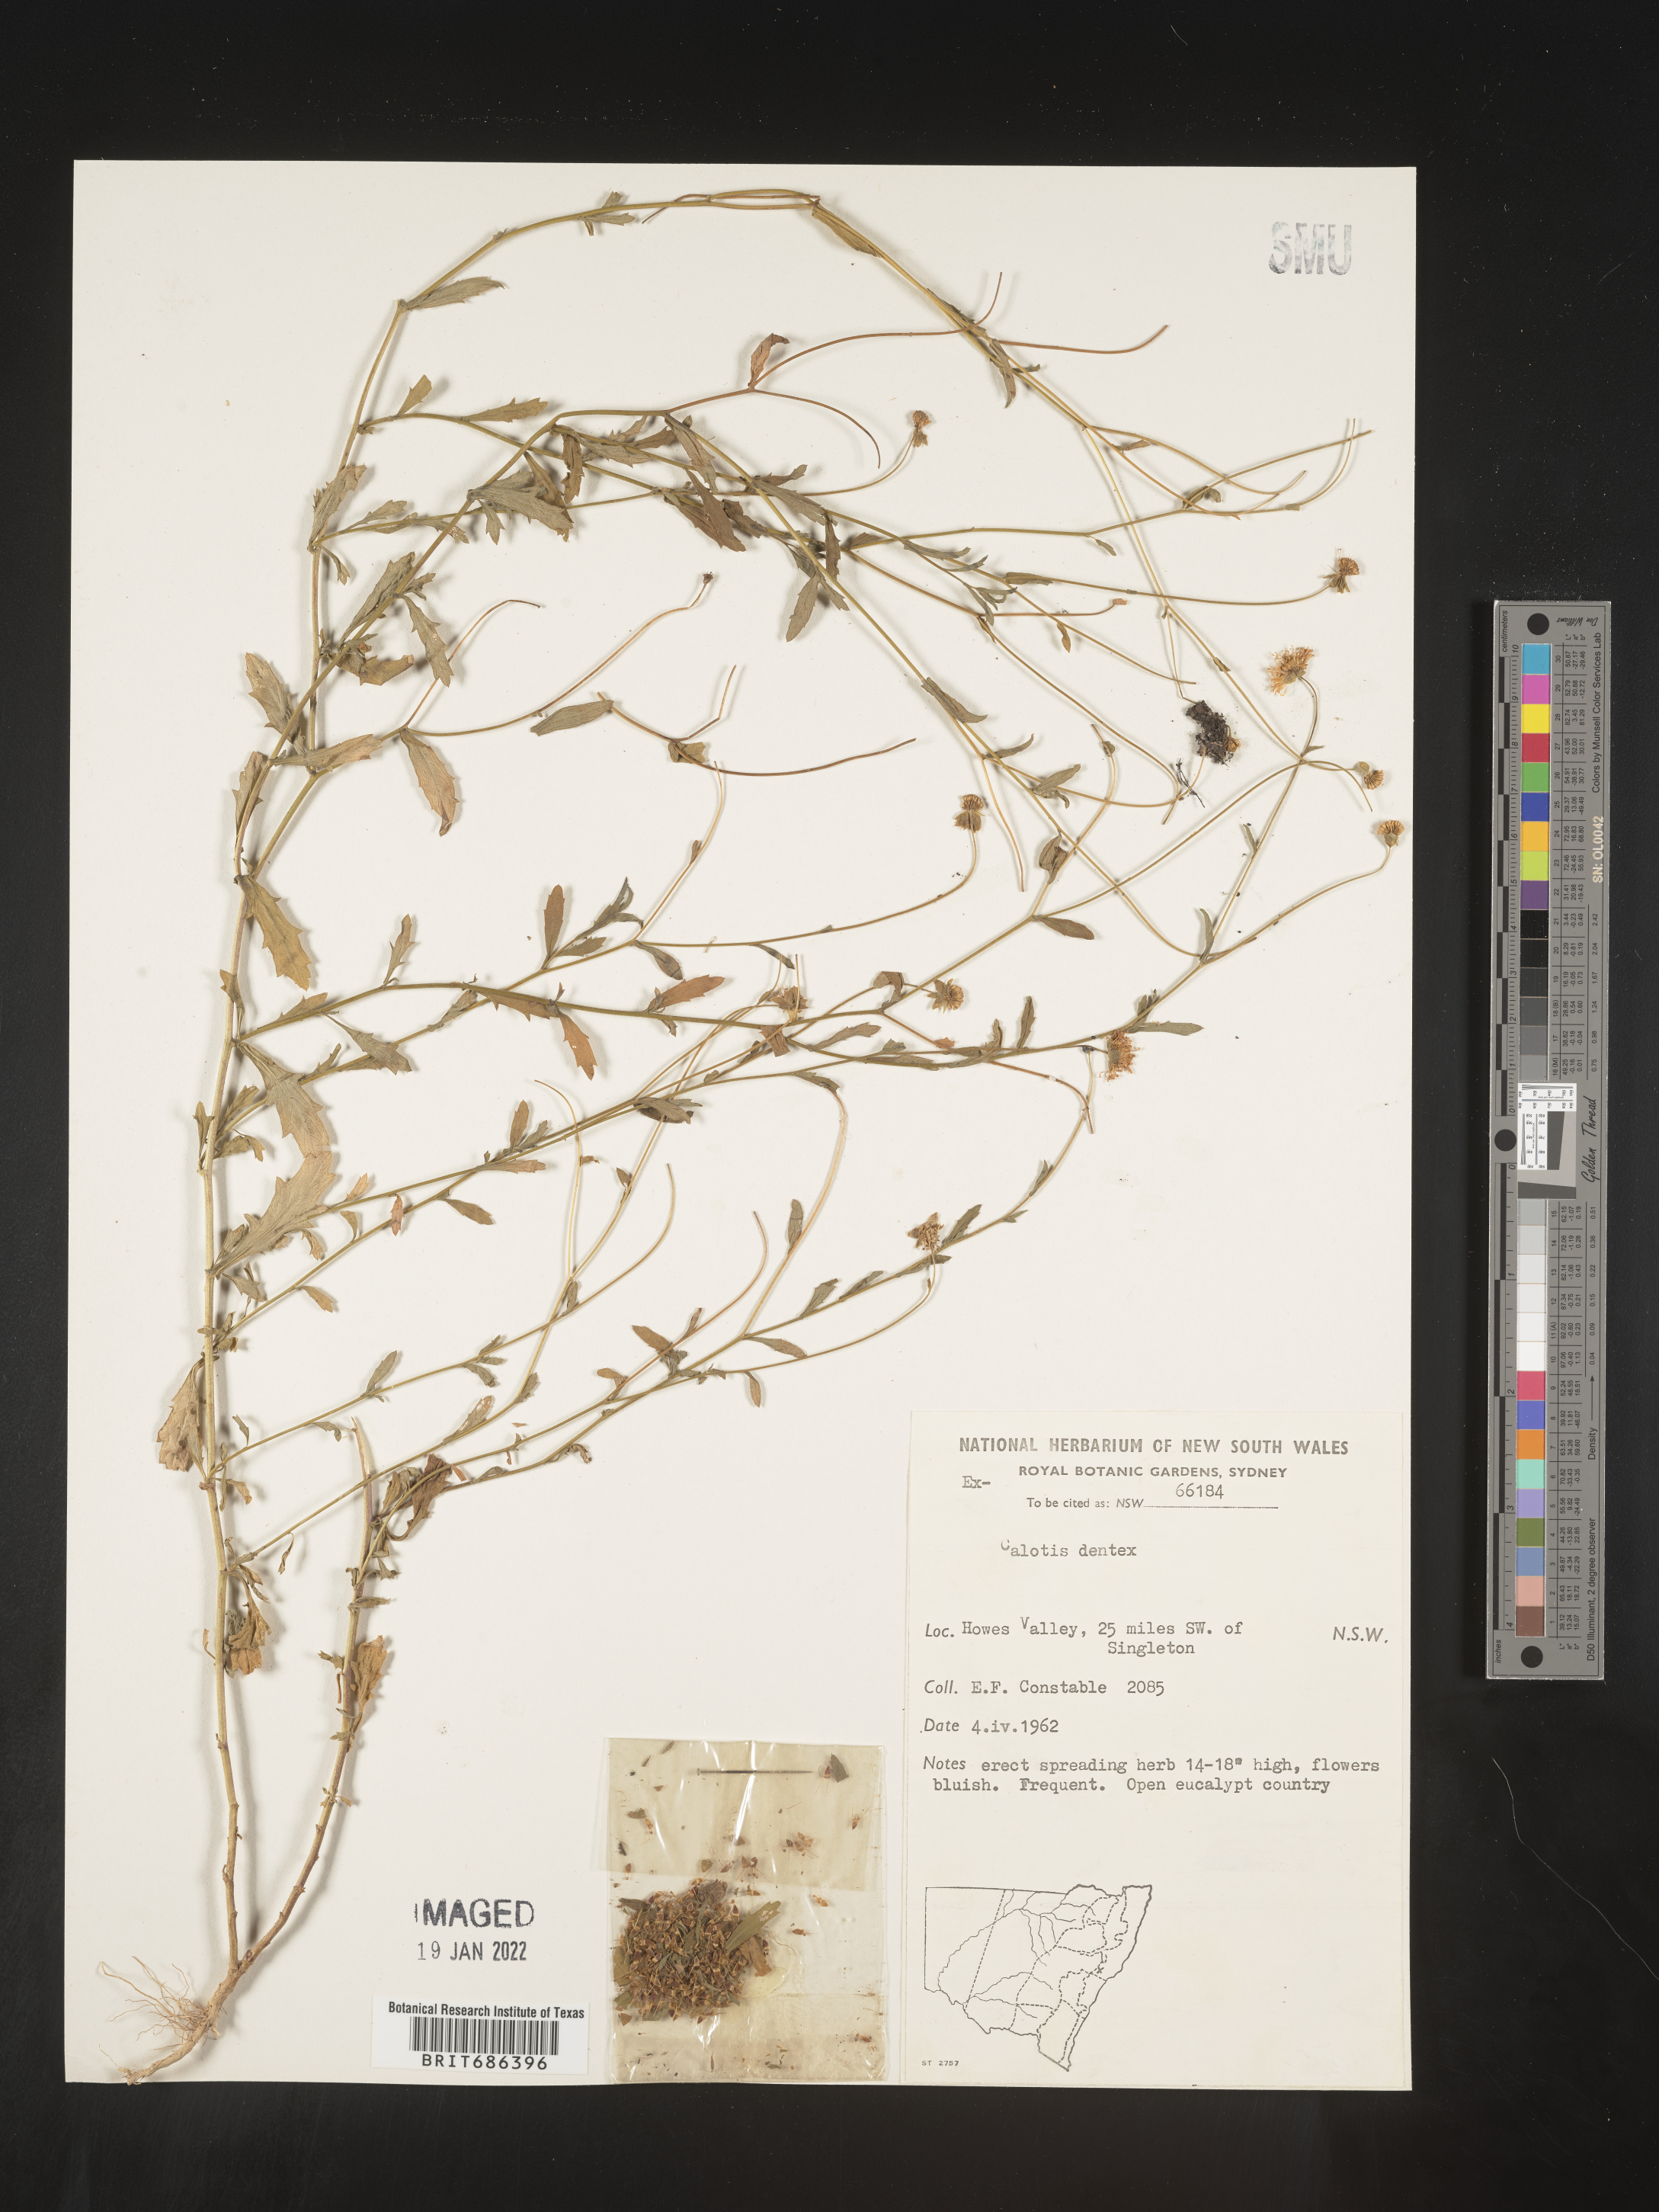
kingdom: Plantae
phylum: Tracheophyta
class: Magnoliopsida
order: Asterales
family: Asteraceae
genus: Calotis
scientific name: Calotis
